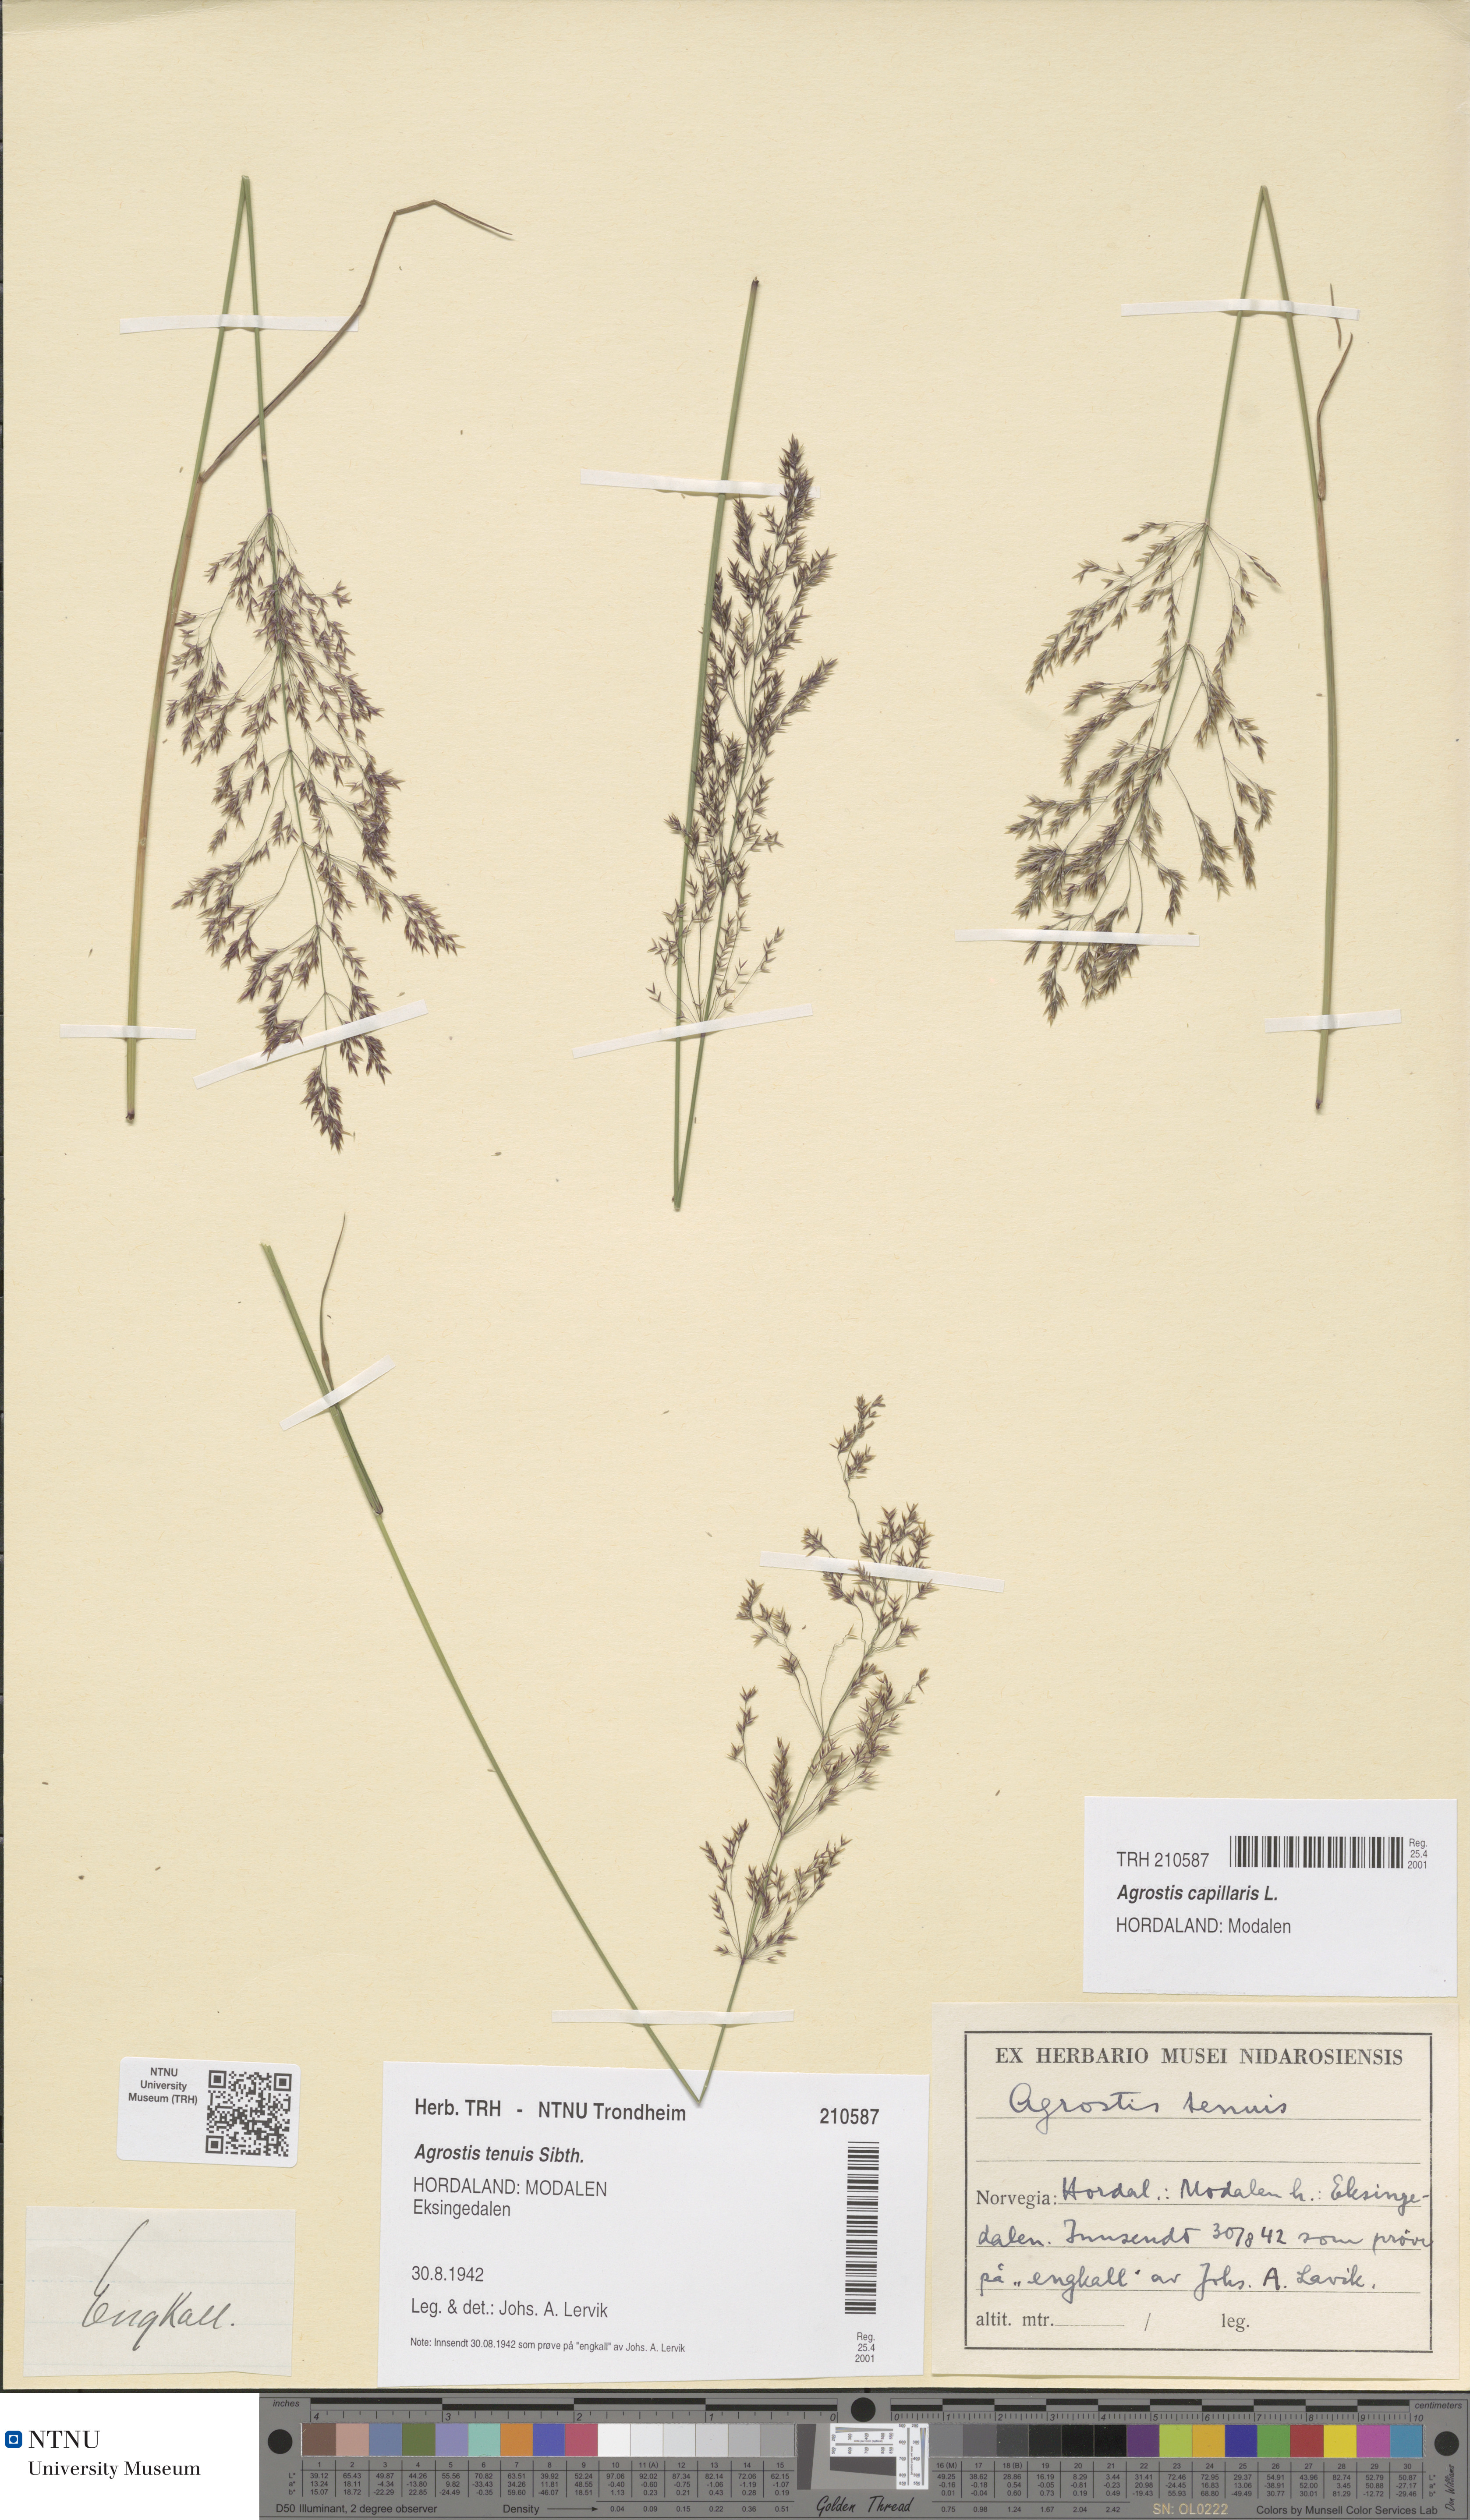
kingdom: Plantae
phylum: Tracheophyta
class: Liliopsida
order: Poales
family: Poaceae
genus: Agrostis
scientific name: Agrostis capillaris
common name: Colonial bentgrass
